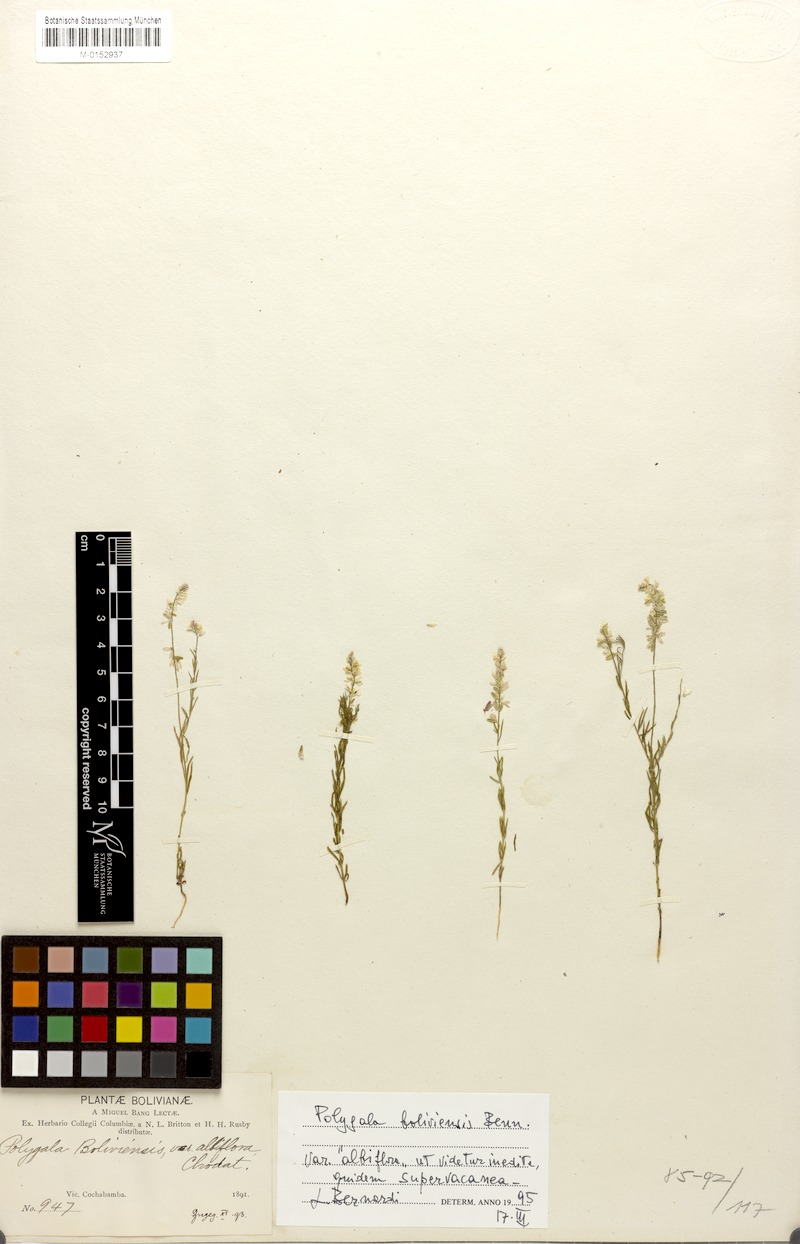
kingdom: Plantae
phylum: Tracheophyta
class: Magnoliopsida
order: Fabales
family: Polygalaceae
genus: Polygala
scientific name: Polygala boliviensis
